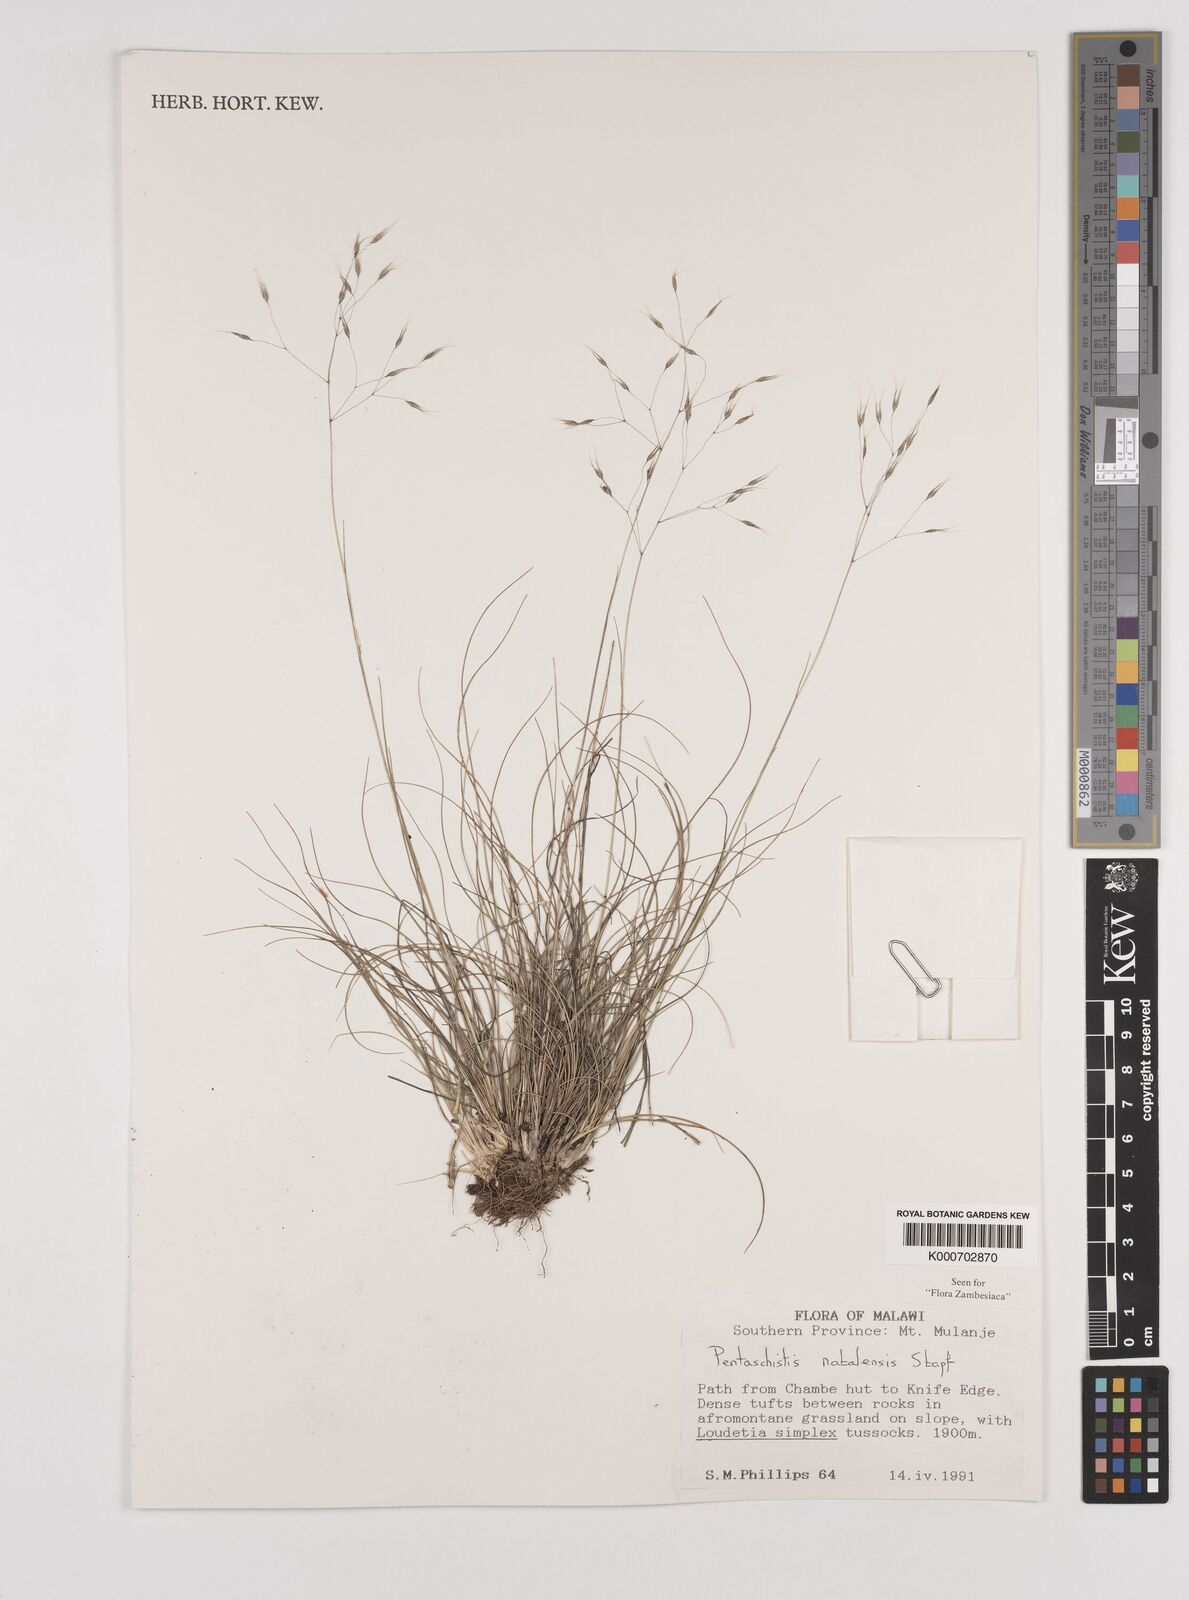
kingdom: Plantae
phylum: Tracheophyta
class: Liliopsida
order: Poales
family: Poaceae
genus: Pentameris
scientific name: Pentameris natalensis
